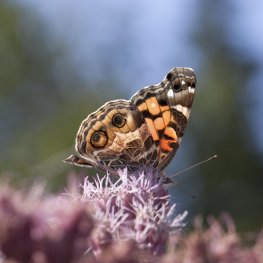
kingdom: Animalia
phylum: Arthropoda
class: Insecta
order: Lepidoptera
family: Nymphalidae
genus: Vanessa
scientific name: Vanessa virginiensis
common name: American Lady
